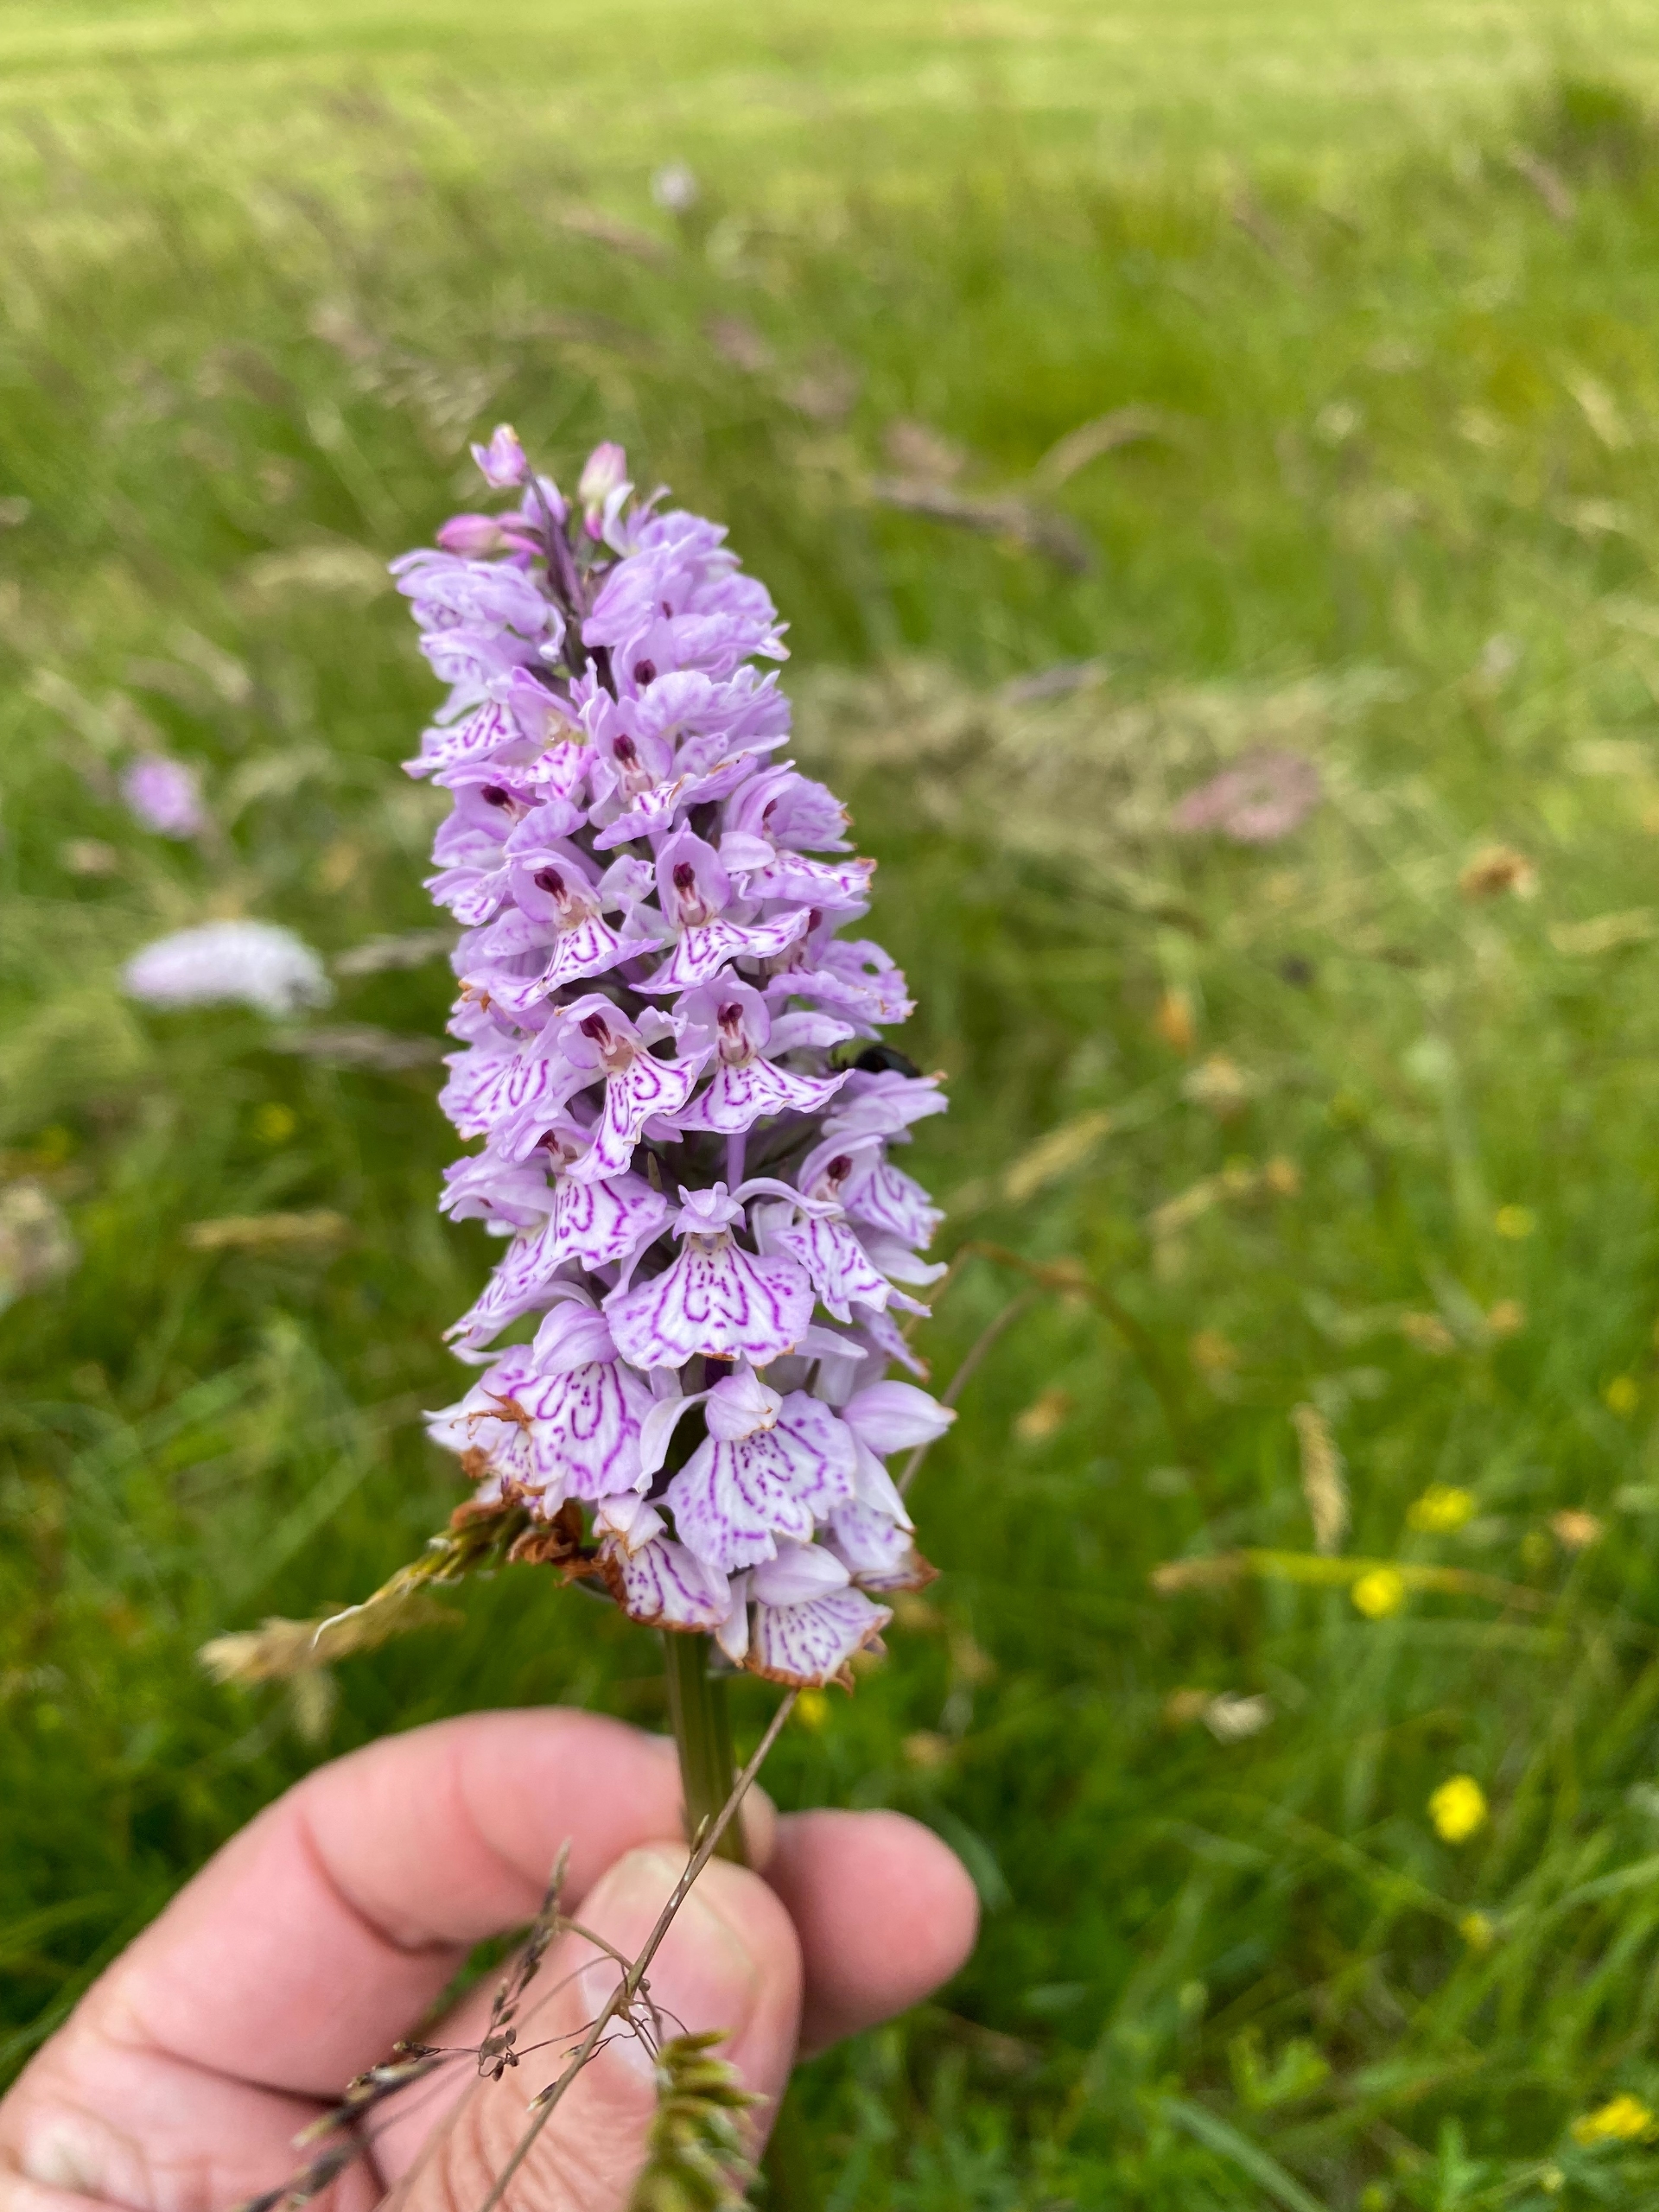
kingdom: Plantae
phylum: Tracheophyta
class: Liliopsida
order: Asparagales
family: Orchidaceae
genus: Dactylorhiza
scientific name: Dactylorhiza maculata
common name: Plettet gøgeurt
